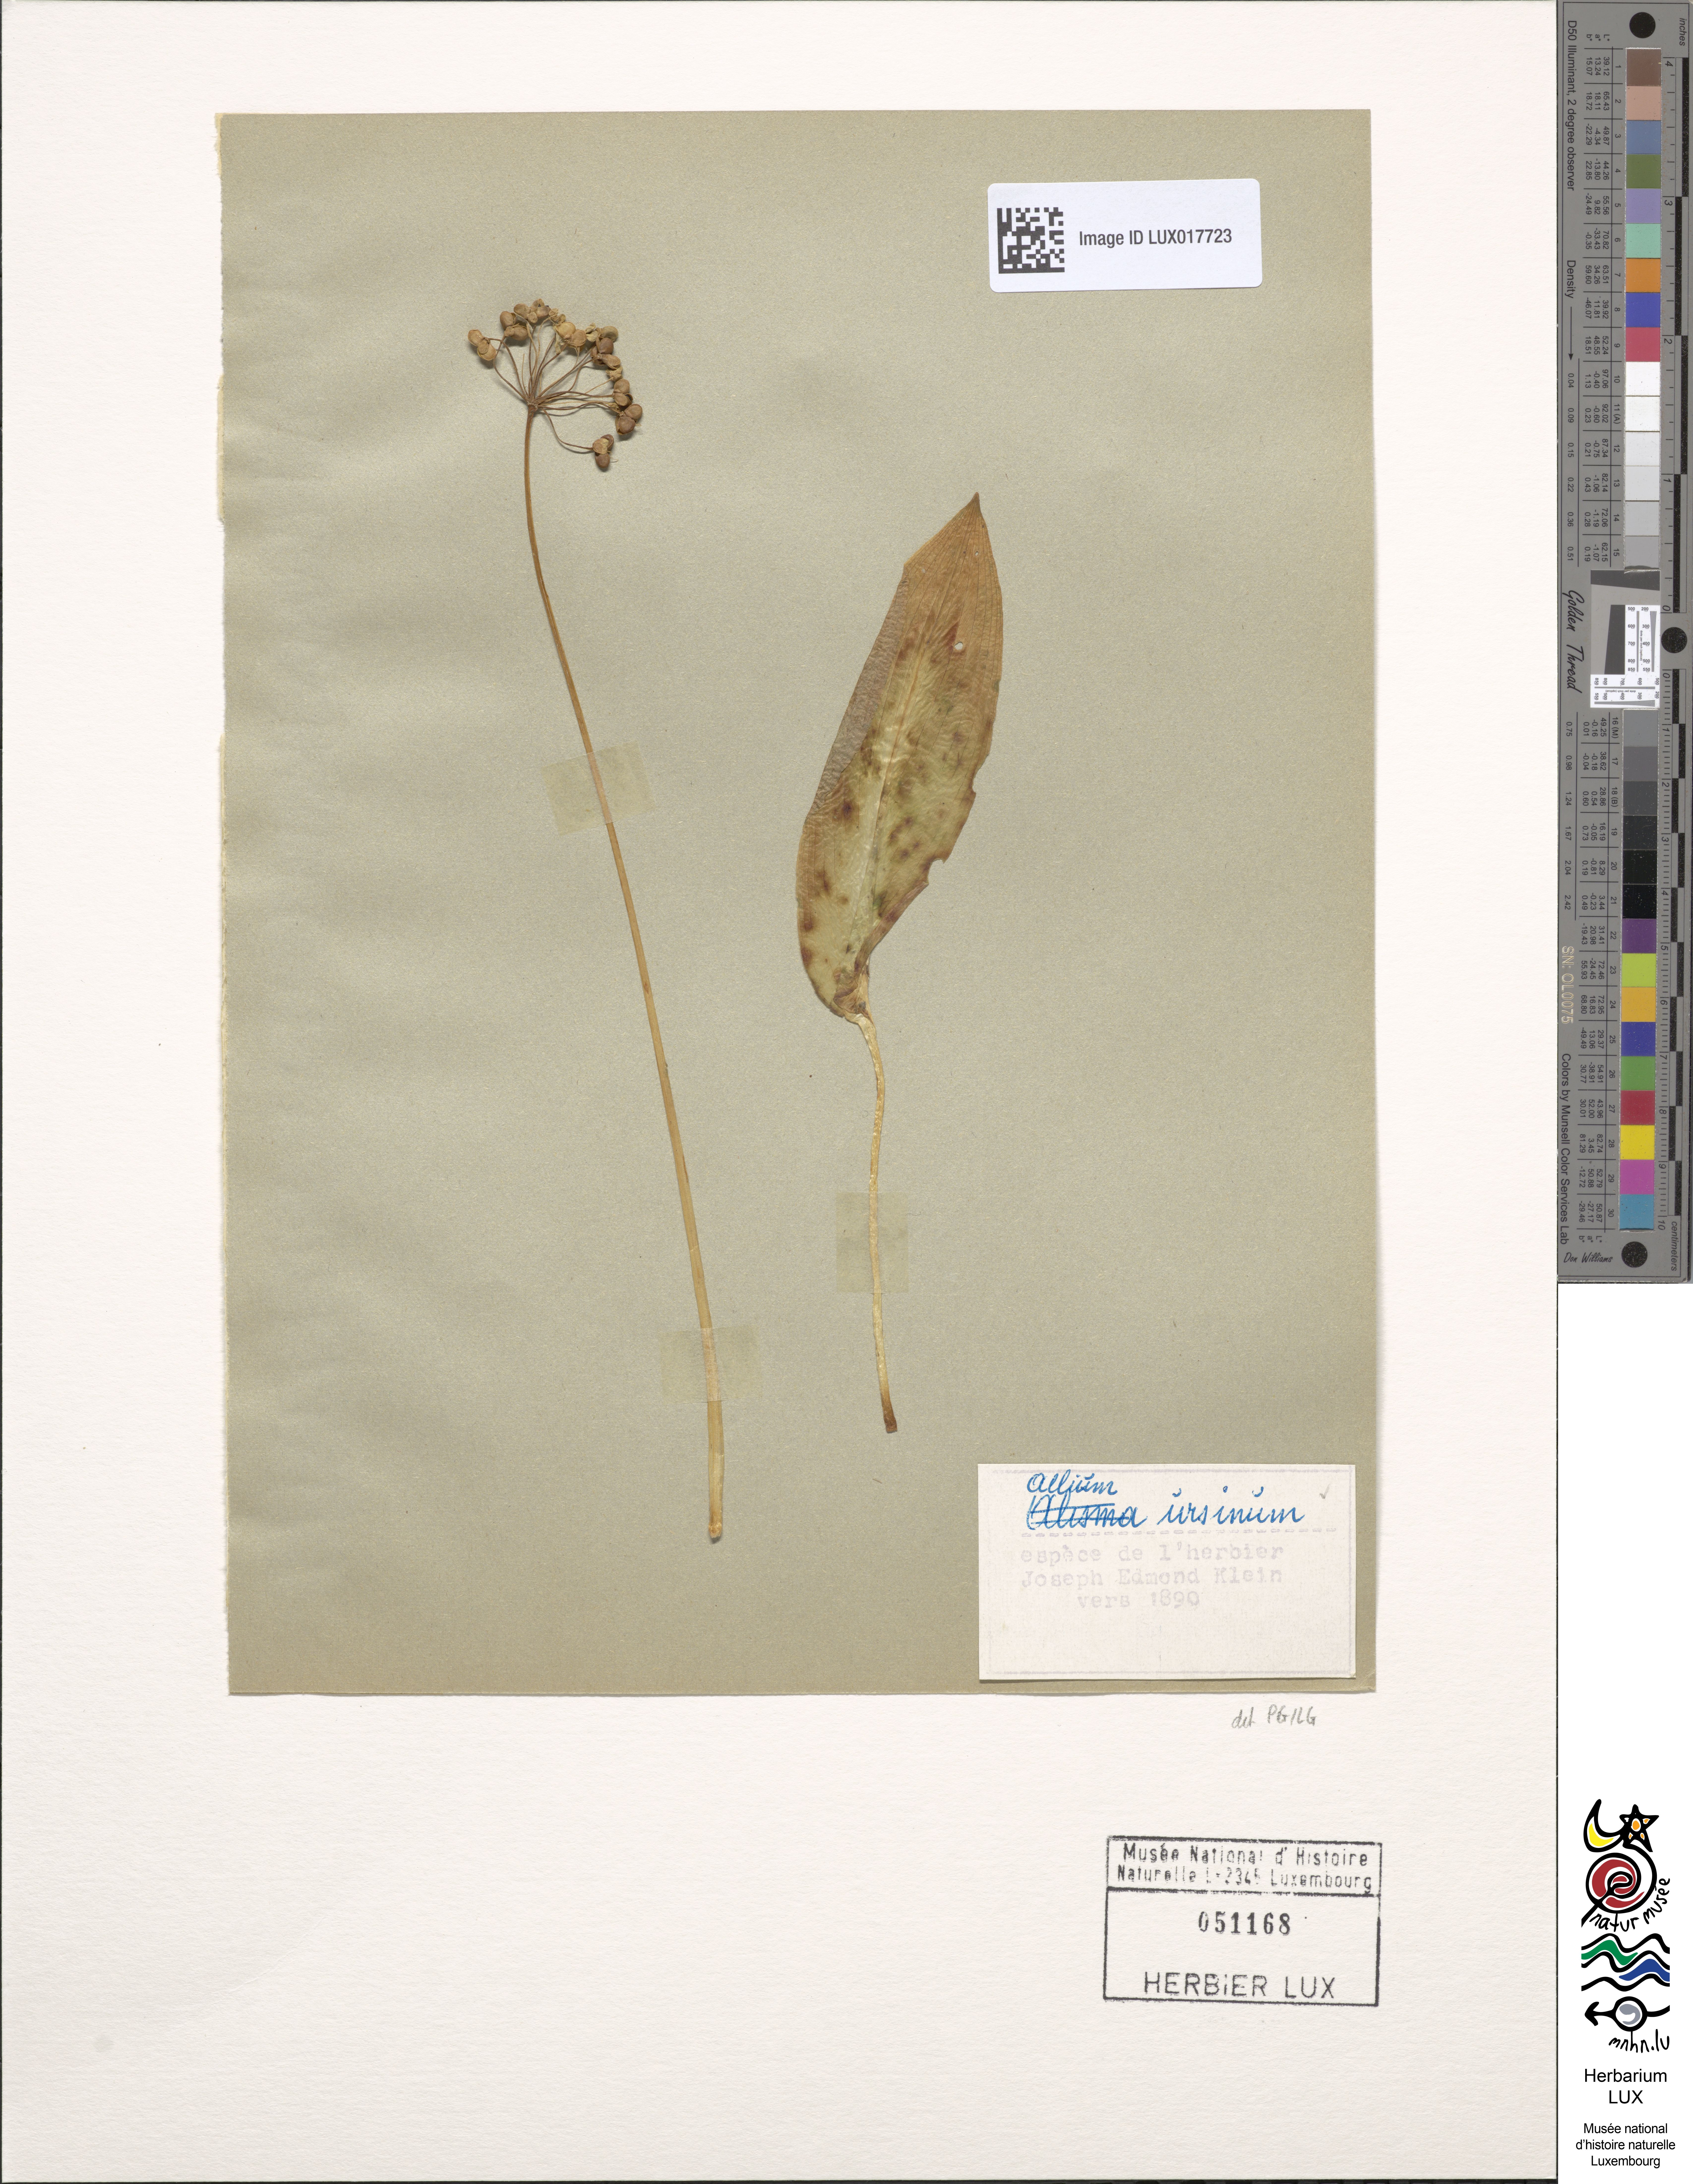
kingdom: Plantae
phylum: Tracheophyta
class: Liliopsida
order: Asparagales
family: Amaryllidaceae
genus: Allium
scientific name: Allium ursinum
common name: Ramsons
